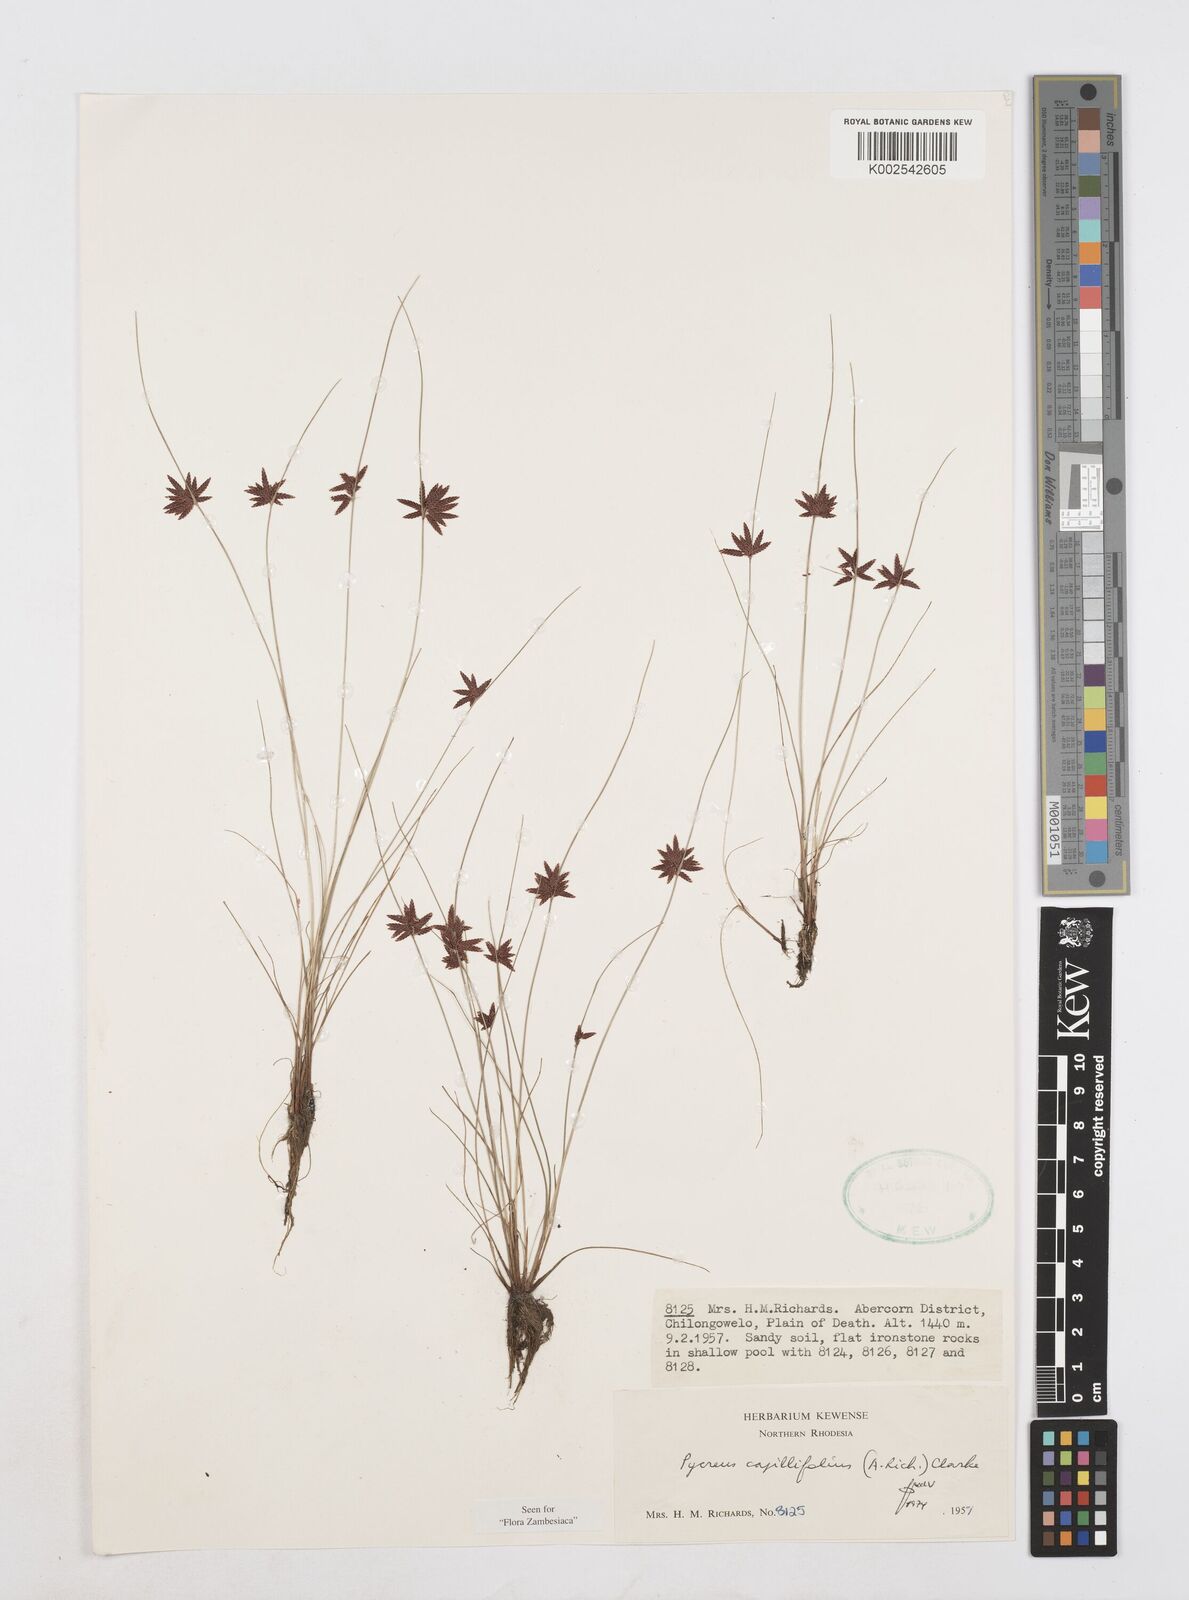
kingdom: Plantae
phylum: Tracheophyta
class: Liliopsida
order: Poales
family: Cyperaceae
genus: Cyperus
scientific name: Cyperus capillifolius
